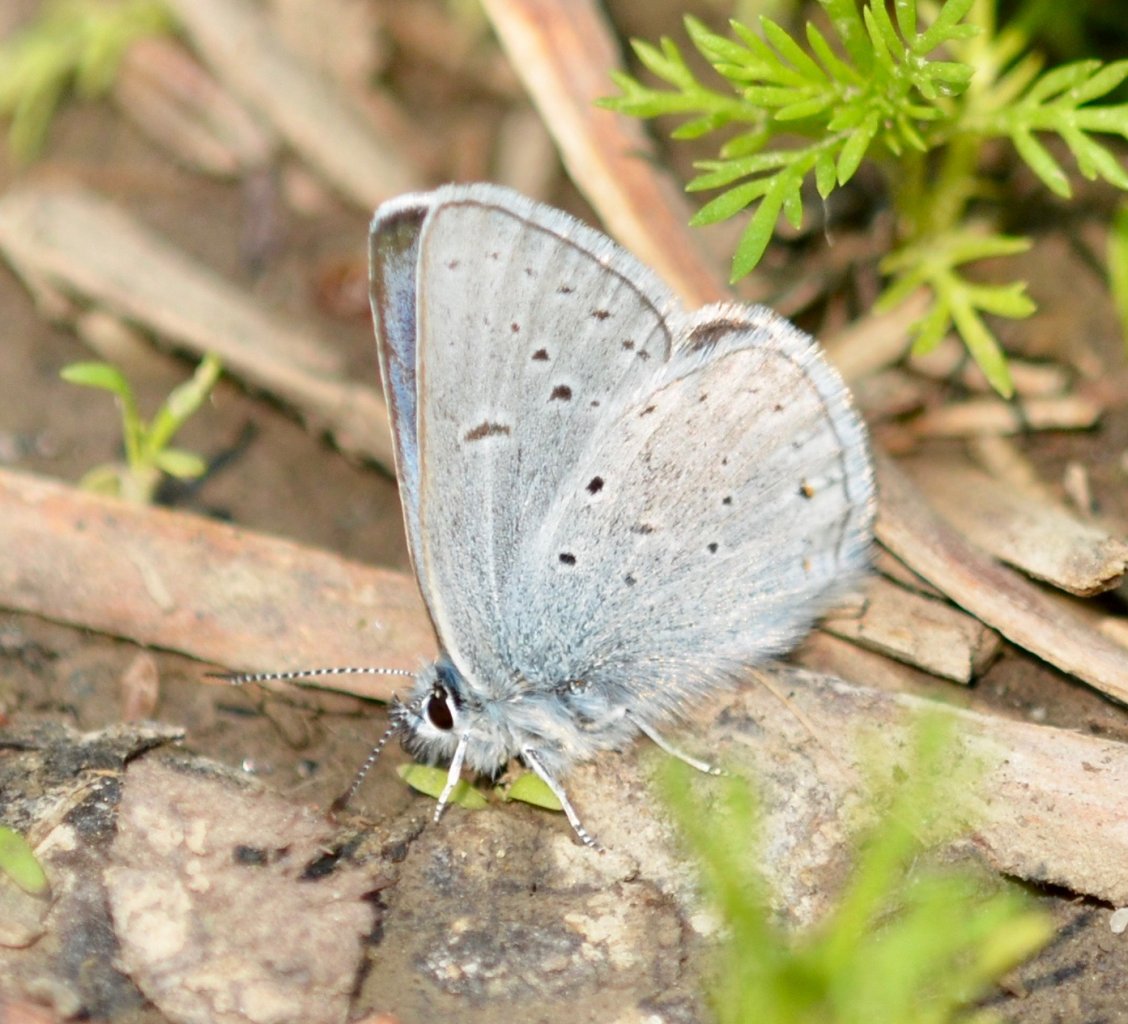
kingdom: Animalia
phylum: Arthropoda
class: Insecta
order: Lepidoptera
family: Lycaenidae
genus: Glaucopsyche
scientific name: Glaucopsyche lygdamus
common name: Silvery Blue
